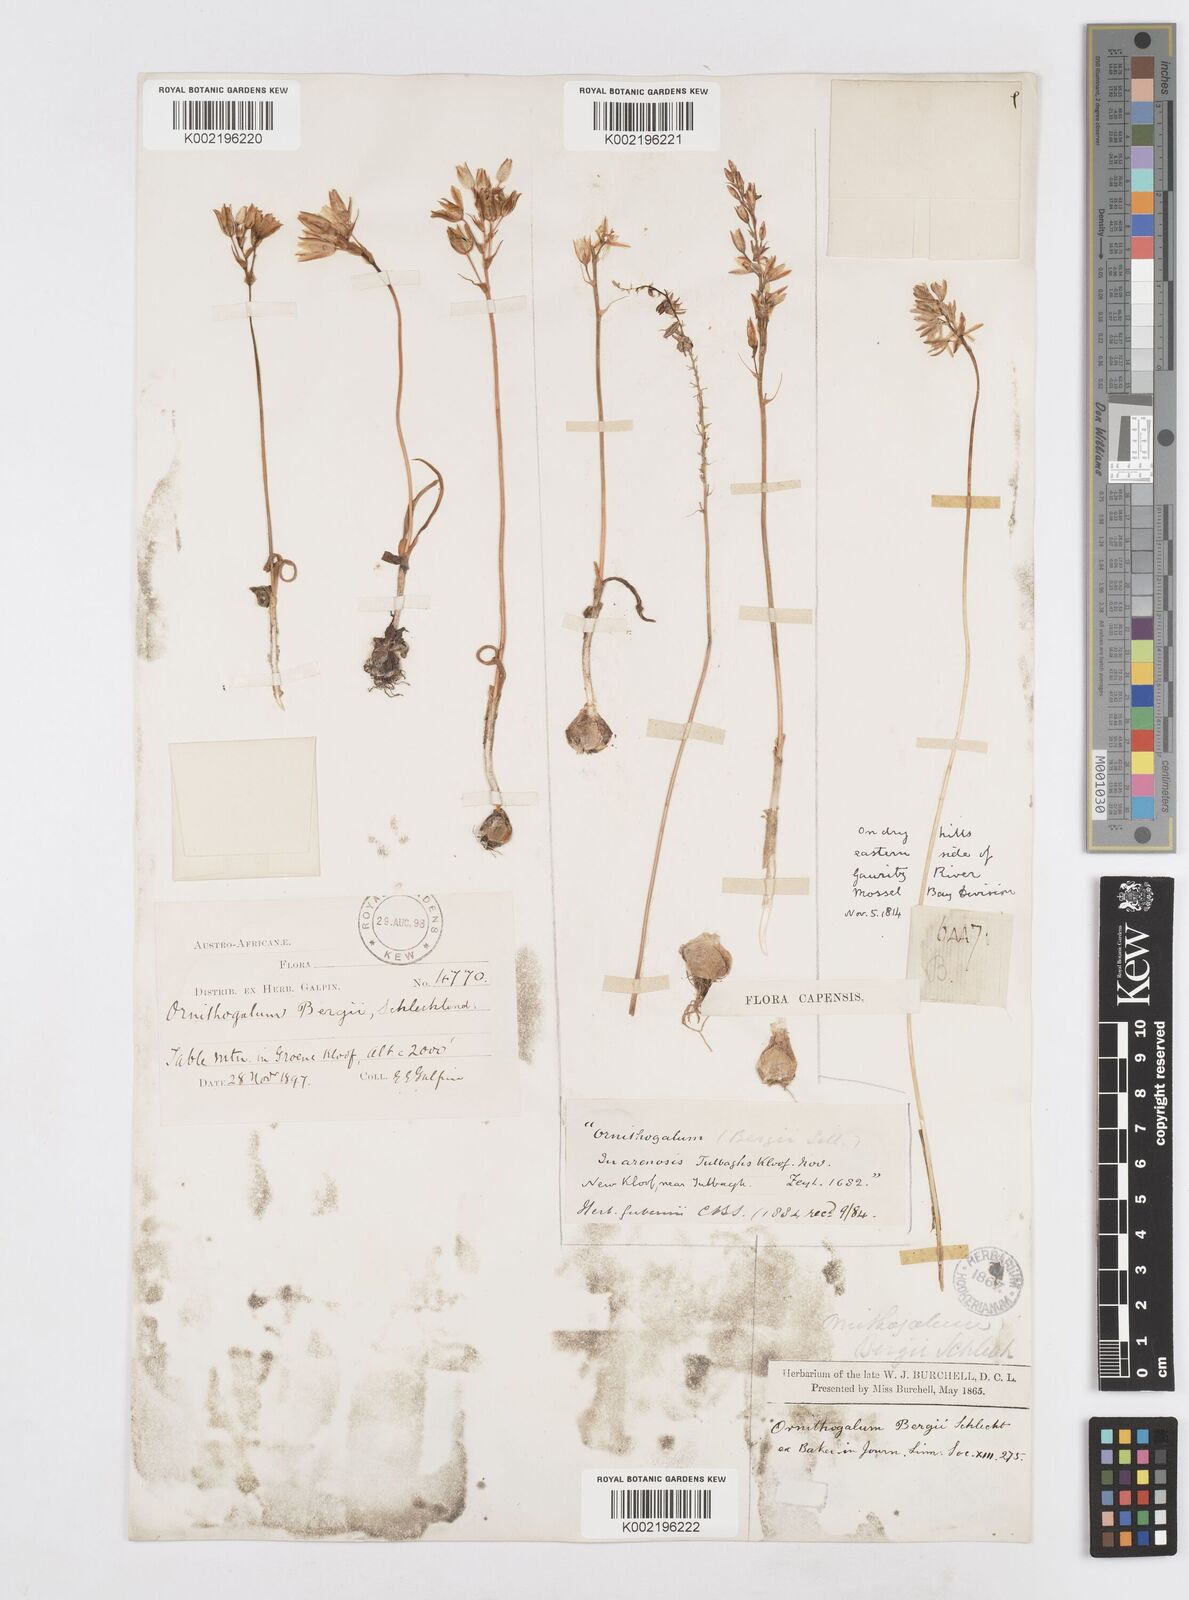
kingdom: Plantae
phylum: Tracheophyta
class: Liliopsida
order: Asparagales
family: Asparagaceae
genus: Ornithogalum
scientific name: Ornithogalum hispidum
